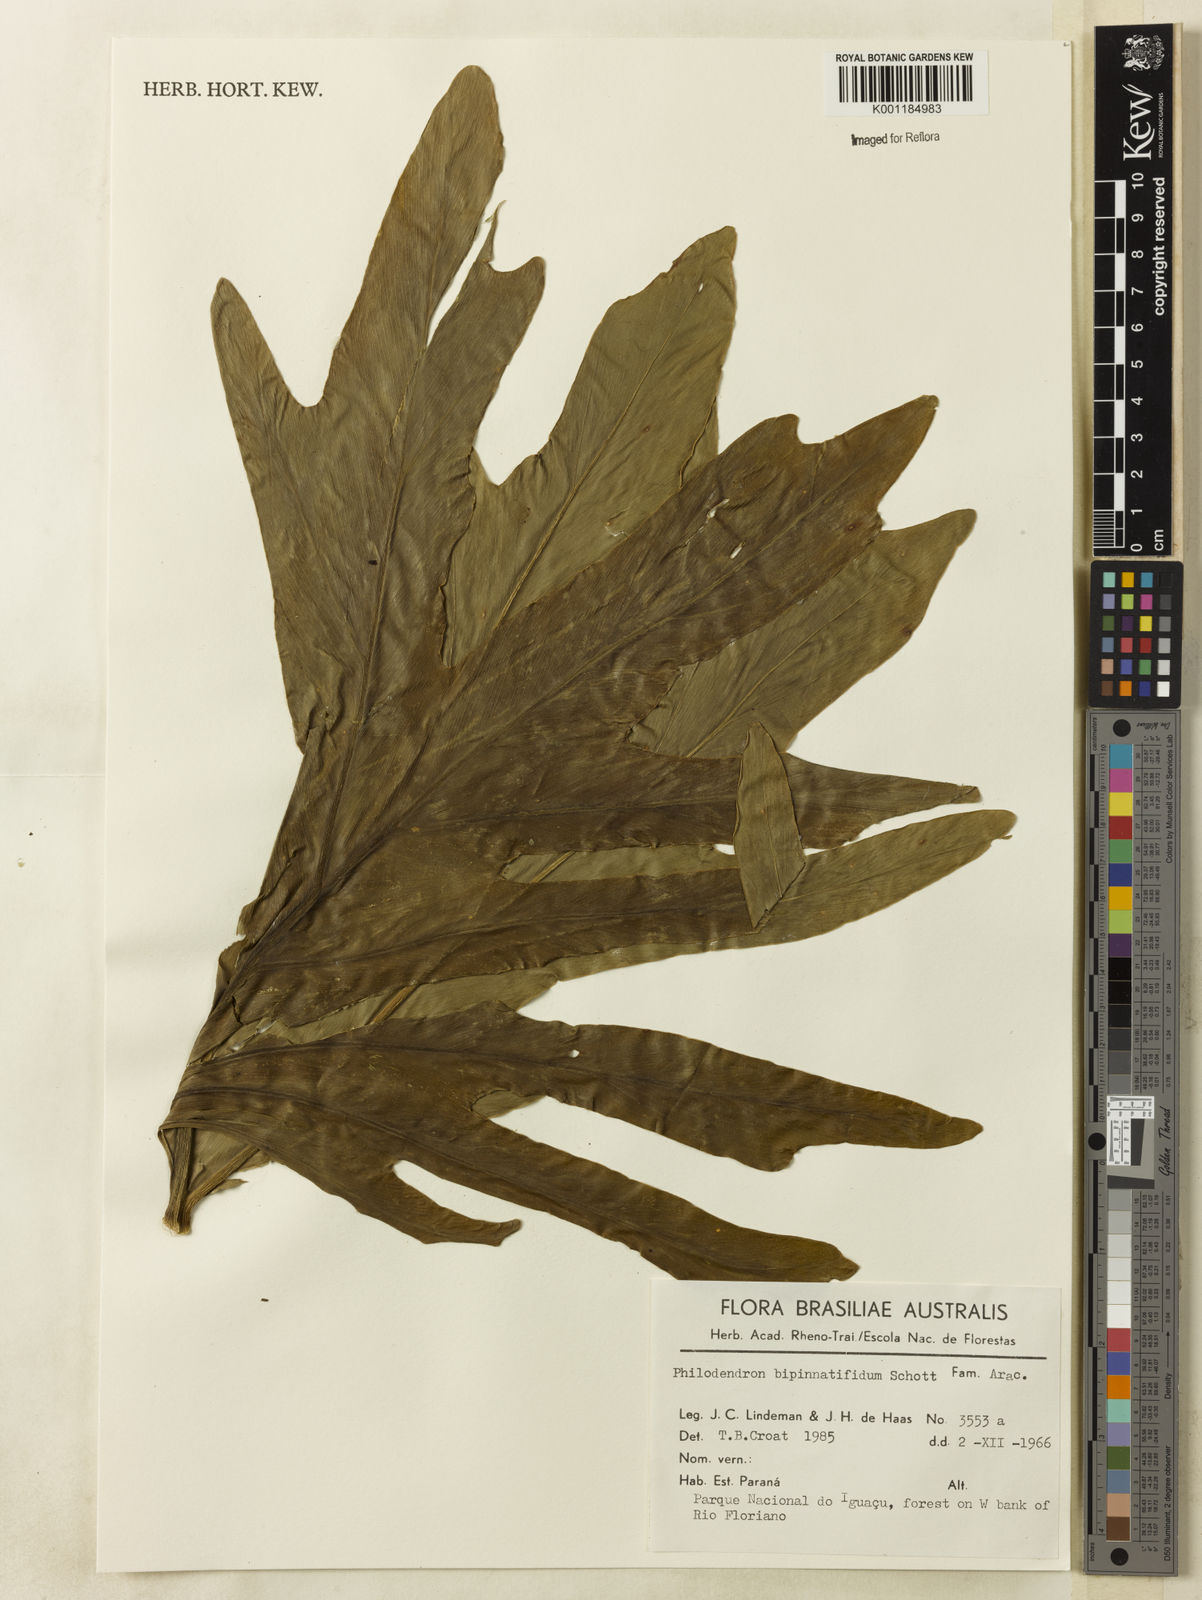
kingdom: Plantae
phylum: Tracheophyta
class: Liliopsida
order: Alismatales
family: Araceae
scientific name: Araceae
